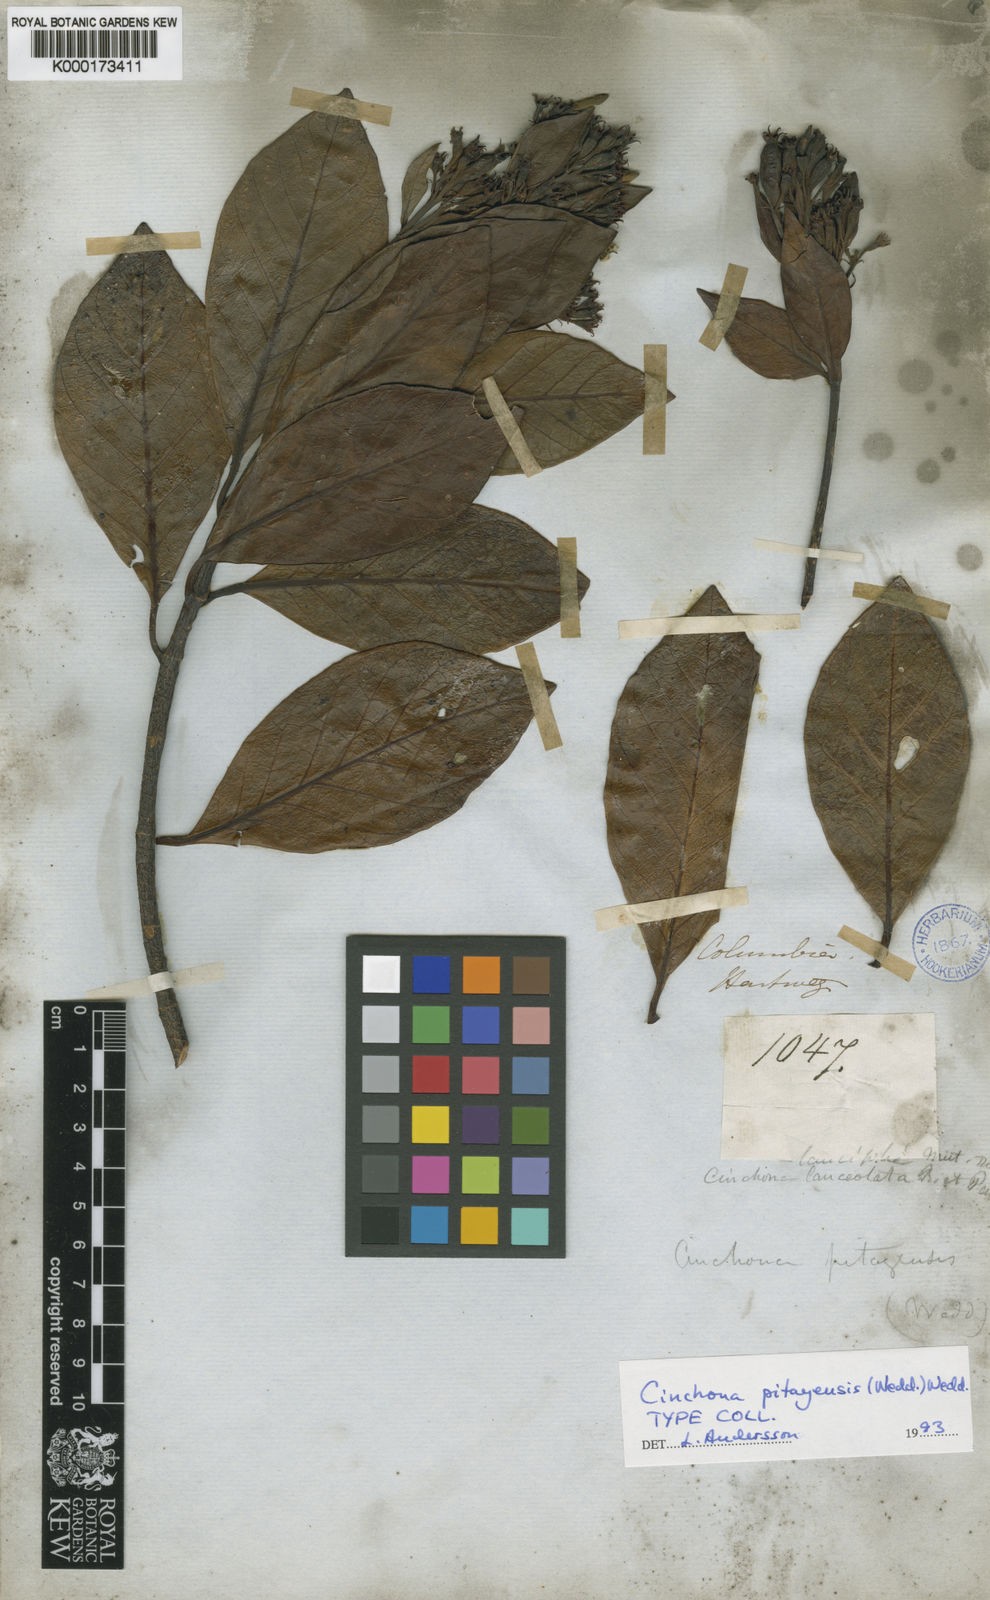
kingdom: Plantae
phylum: Tracheophyta
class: Magnoliopsida
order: Gentianales
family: Rubiaceae
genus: Cinchona
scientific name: Cinchona pitayensis
